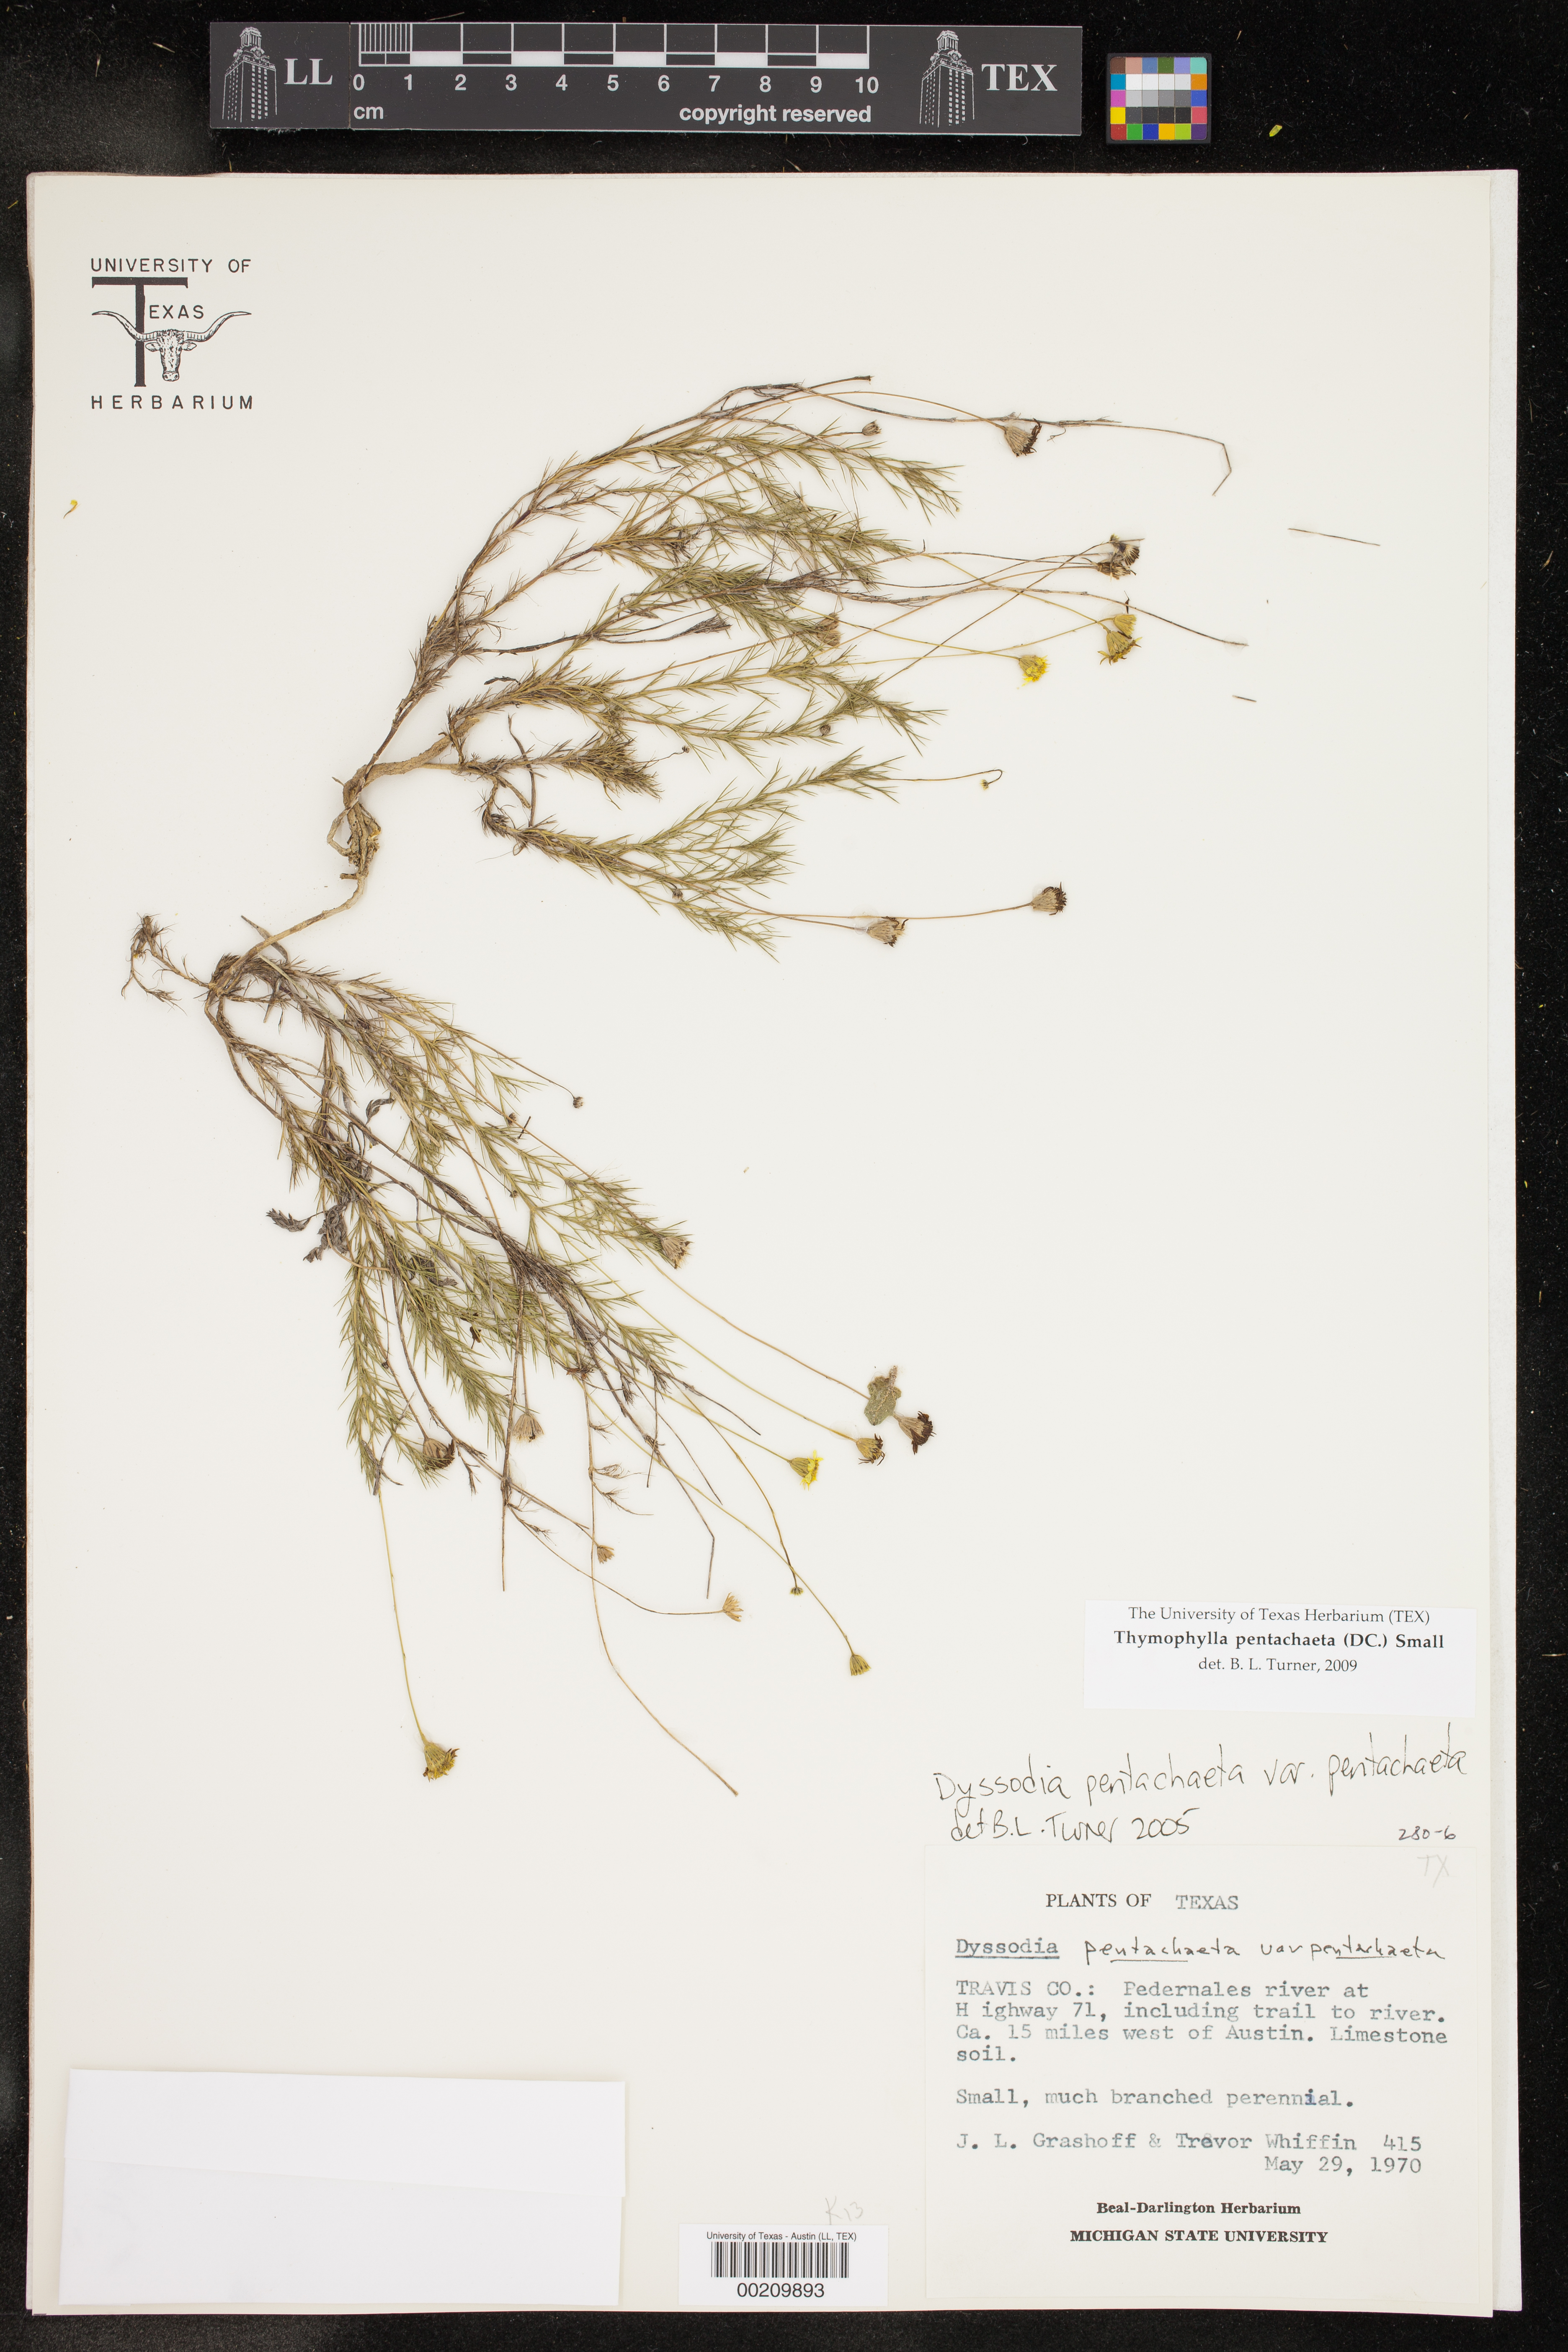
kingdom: Plantae
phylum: Tracheophyta
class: Magnoliopsida
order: Asterales
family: Asteraceae
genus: Thymophylla
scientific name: Thymophylla pentachaeta
